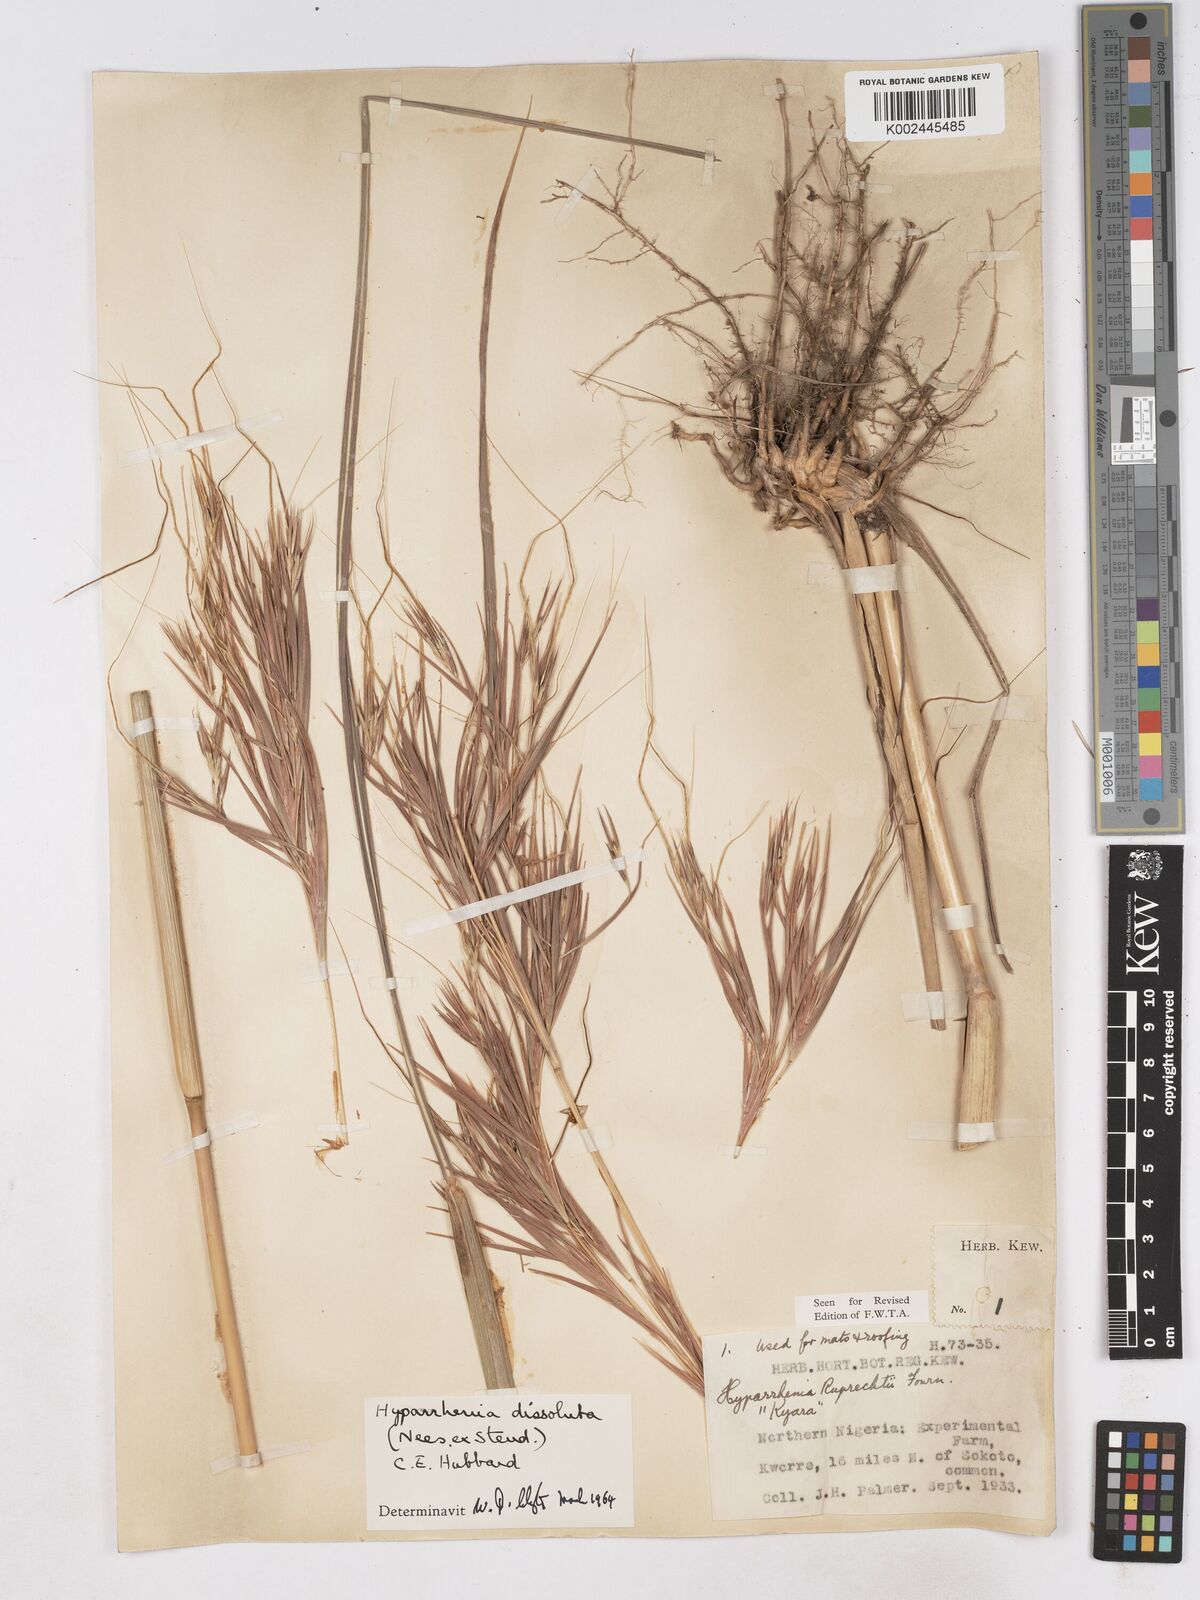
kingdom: Plantae
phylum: Tracheophyta
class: Liliopsida
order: Poales
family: Poaceae
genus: Hyperthelia
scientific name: Hyperthelia dissoluta
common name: Yellow thatching grass
